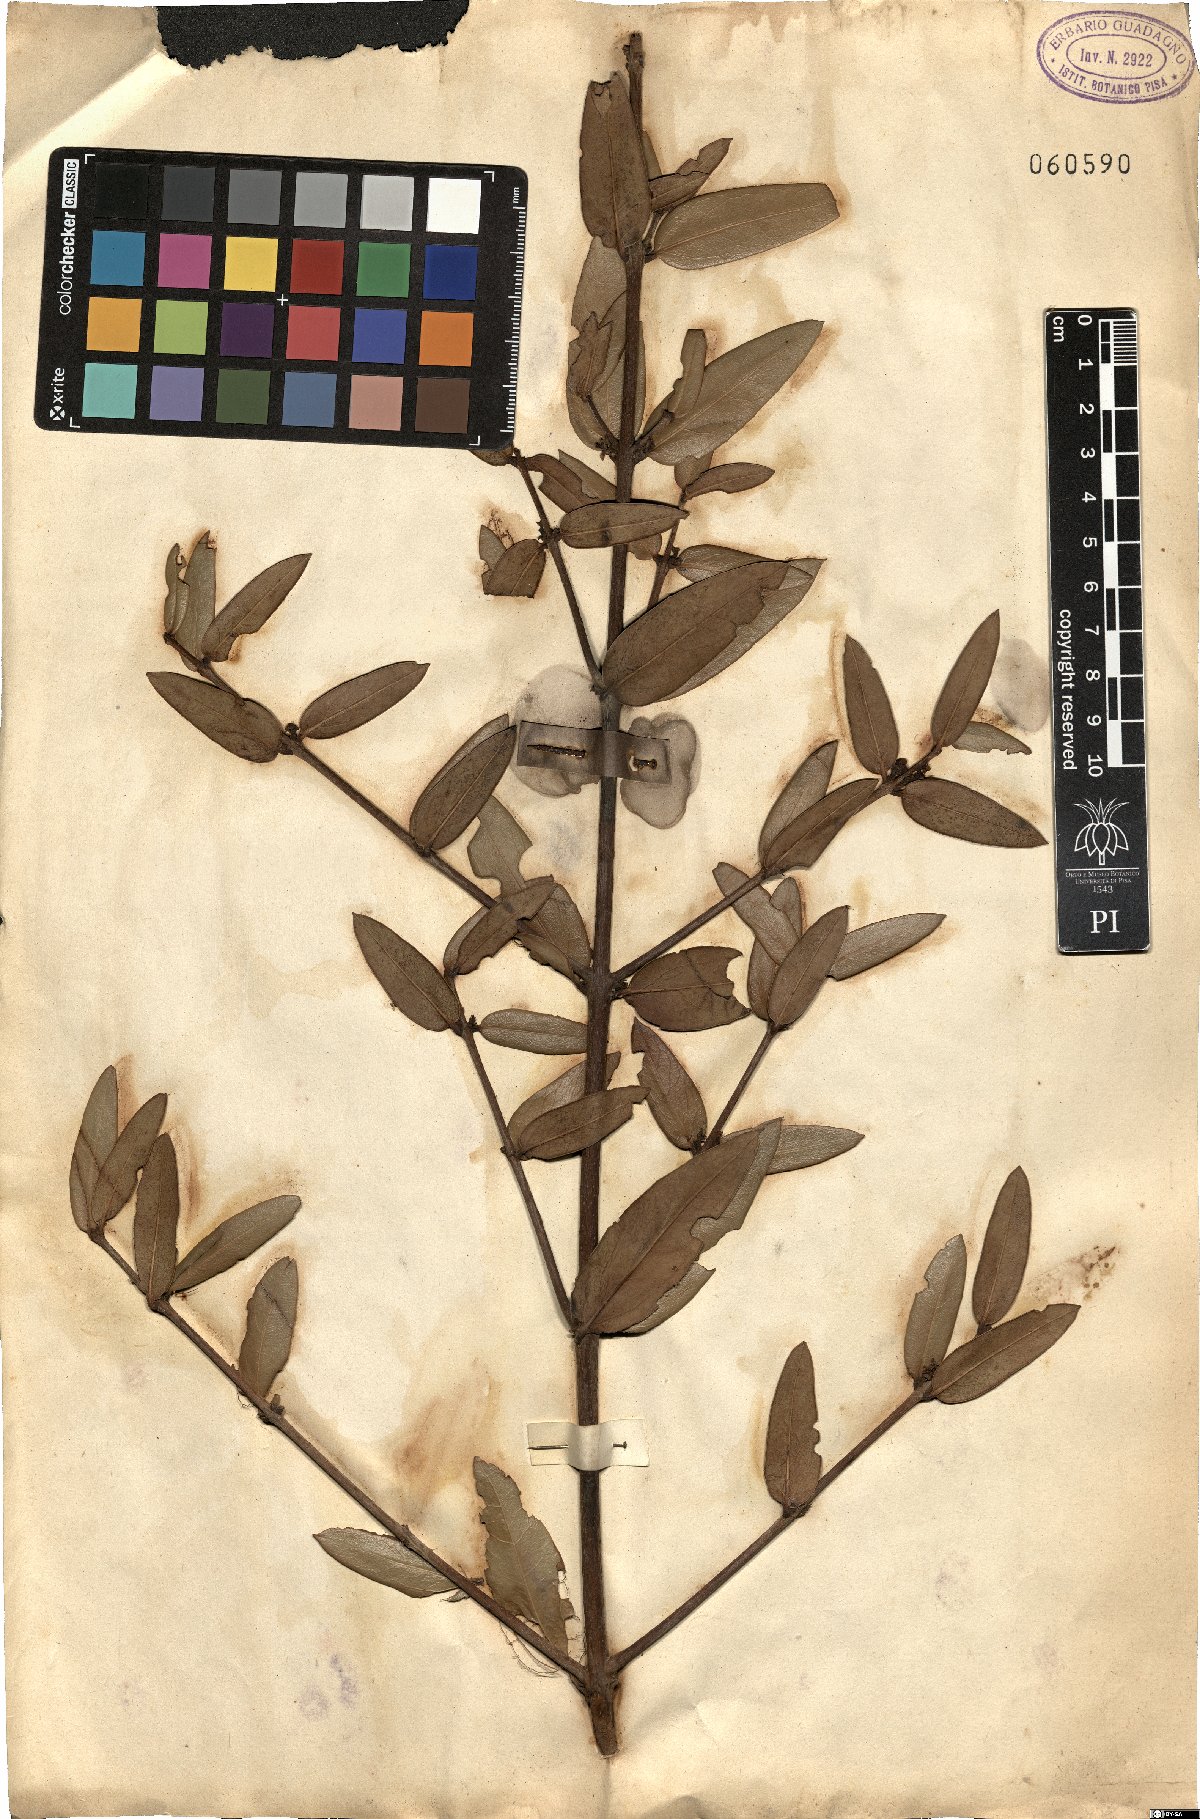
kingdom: Plantae
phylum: Tracheophyta
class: Magnoliopsida
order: Lamiales
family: Oleaceae
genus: Phillyrea
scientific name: Phillyrea angustifolia
